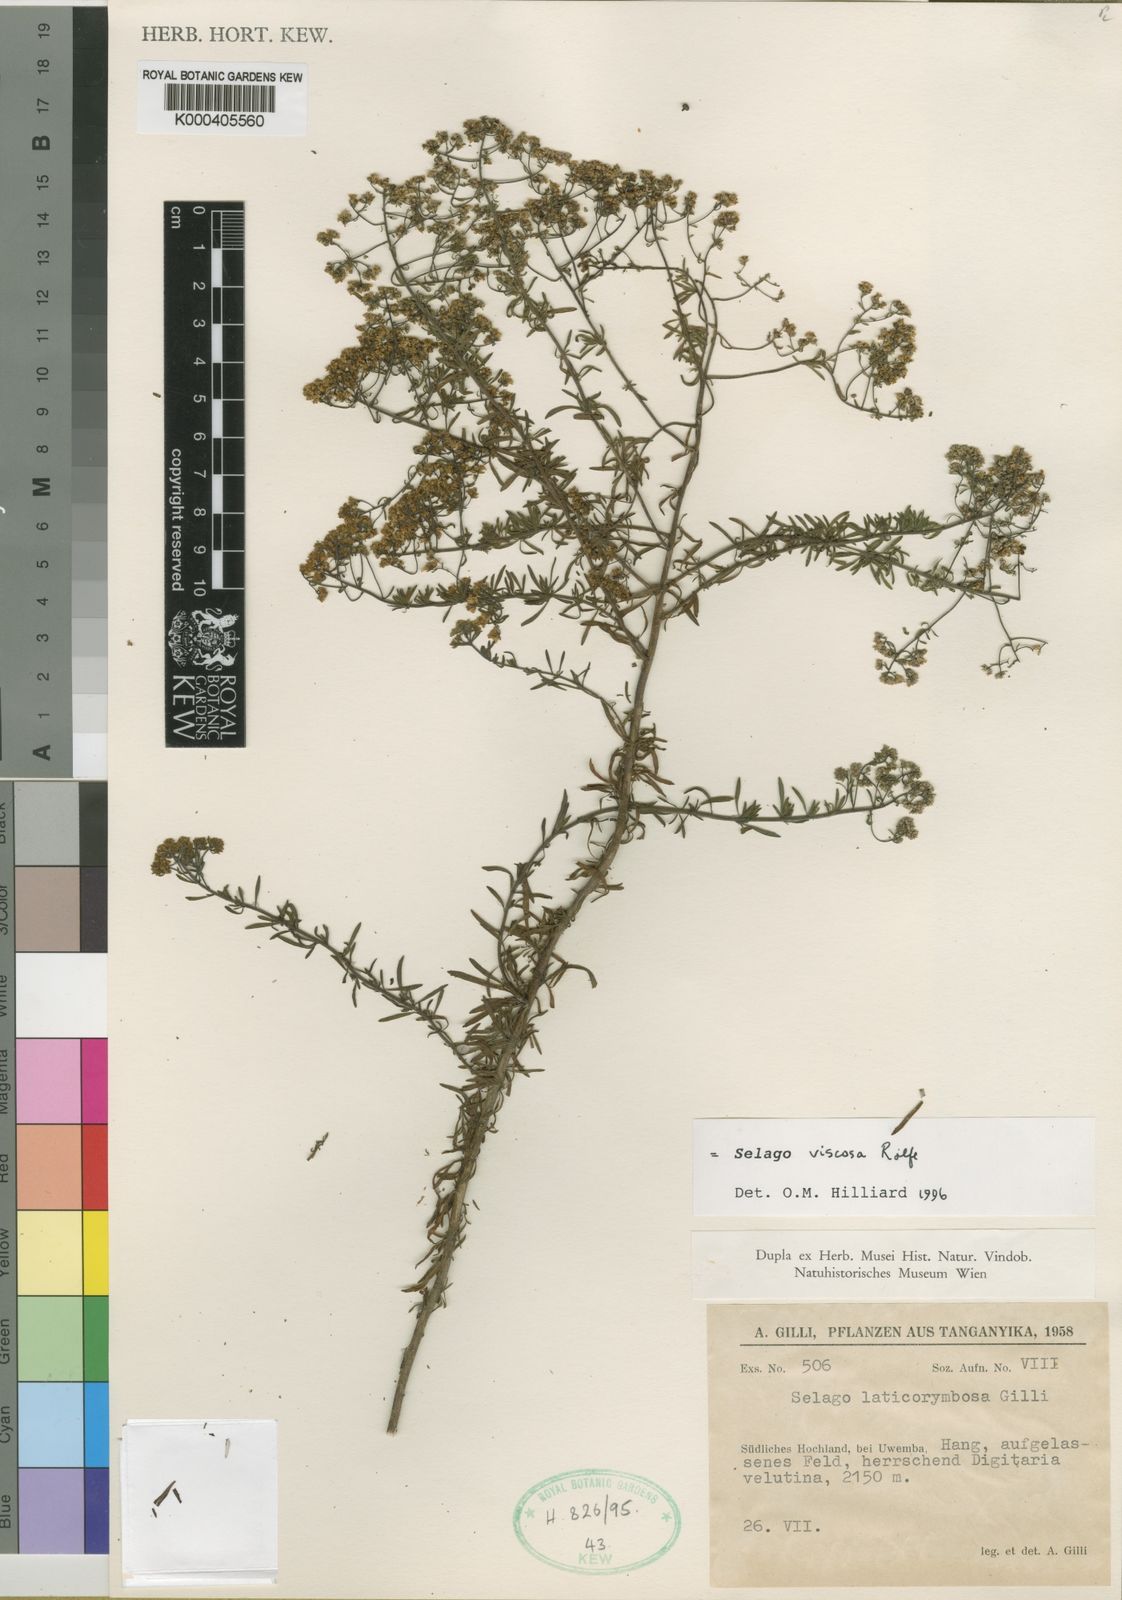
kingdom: Plantae
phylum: Tracheophyta
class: Magnoliopsida
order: Lamiales
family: Scrophulariaceae
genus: Selago
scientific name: Selago viscosa
